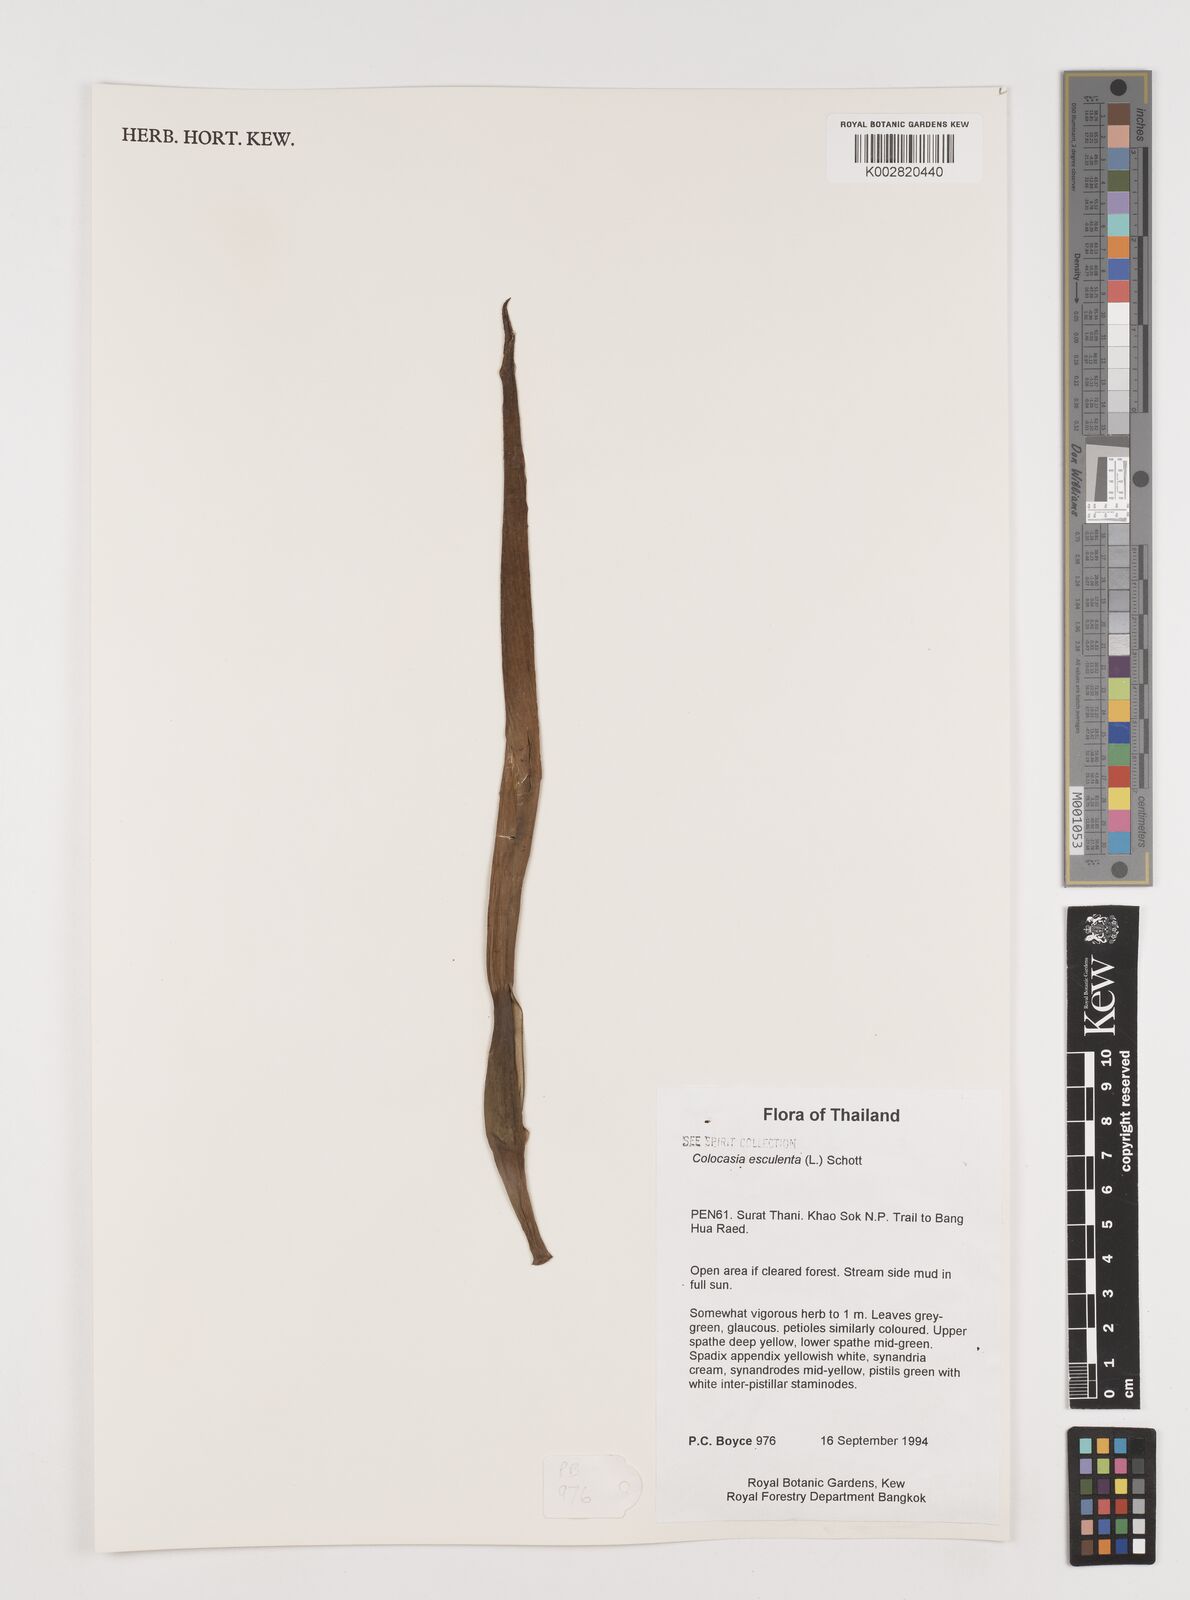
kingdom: Plantae
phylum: Tracheophyta
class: Liliopsida
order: Alismatales
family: Araceae
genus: Colocasia
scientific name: Colocasia esculenta
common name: Taro
